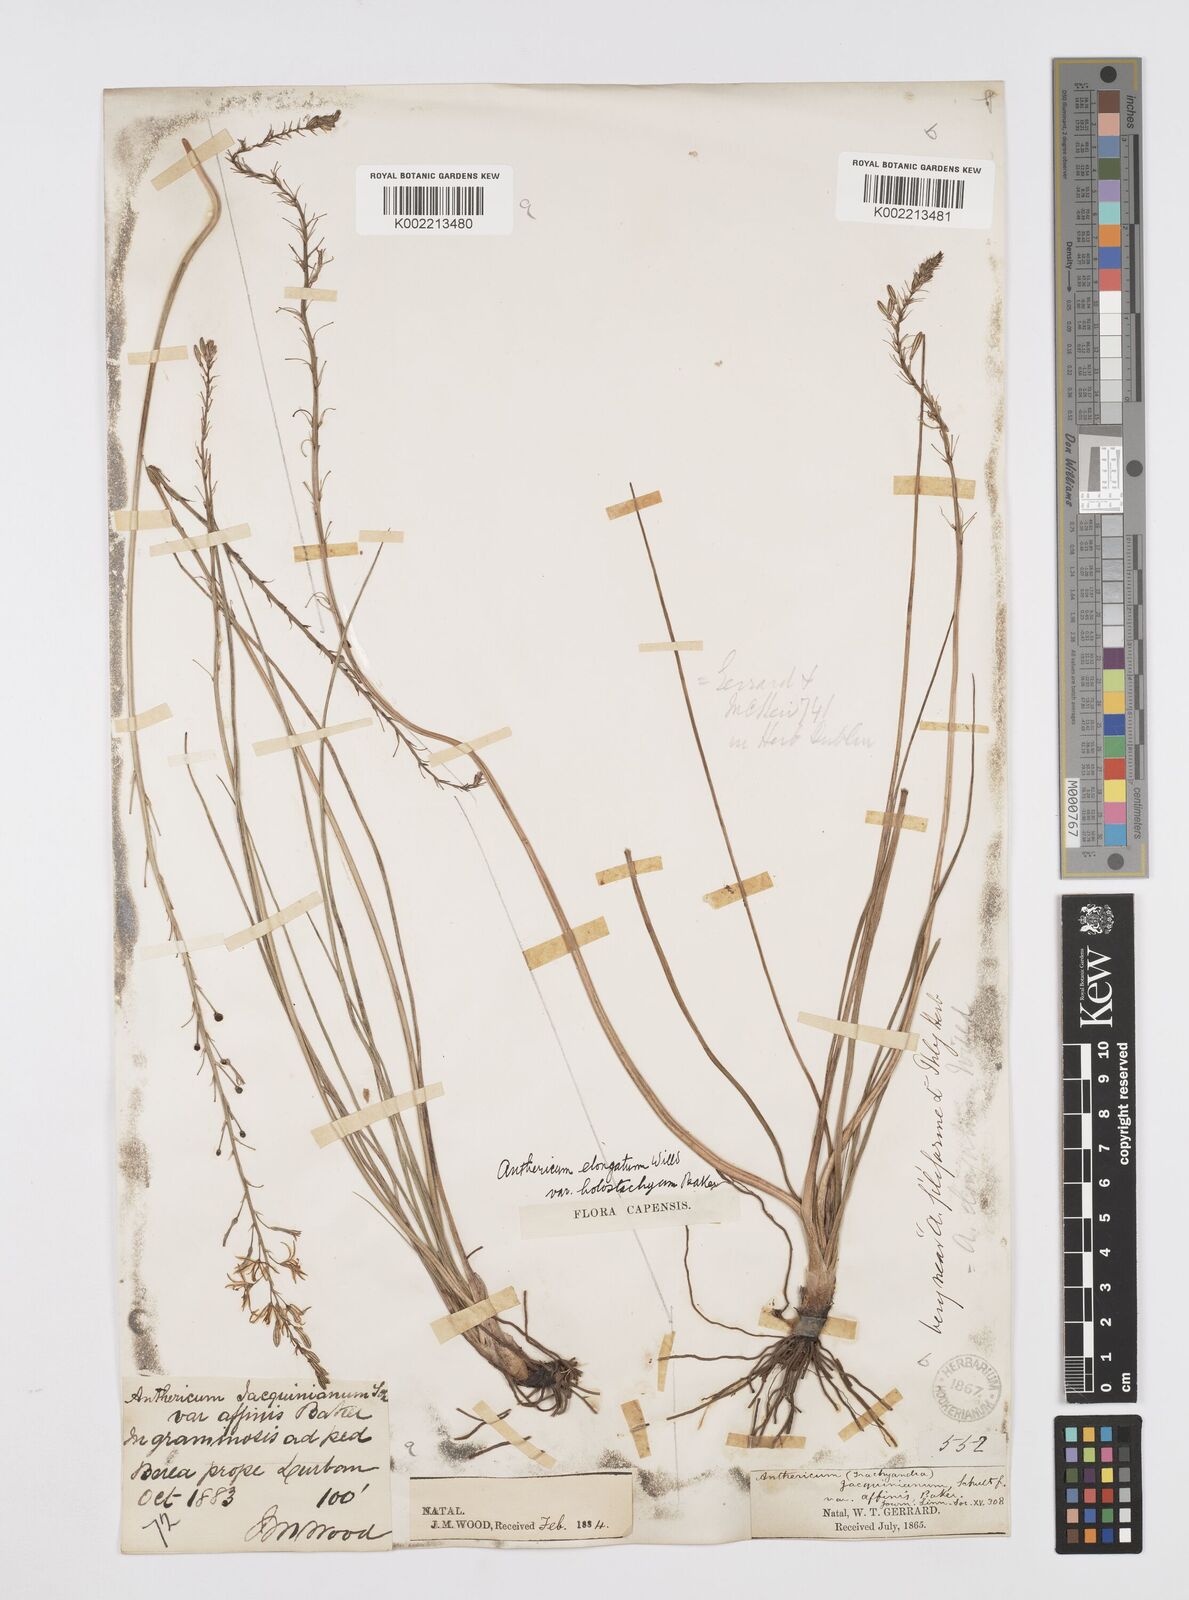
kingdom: Plantae
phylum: Tracheophyta
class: Liliopsida
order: Asparagales
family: Asphodelaceae
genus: Trachyandra
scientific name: Trachyandra saltii
